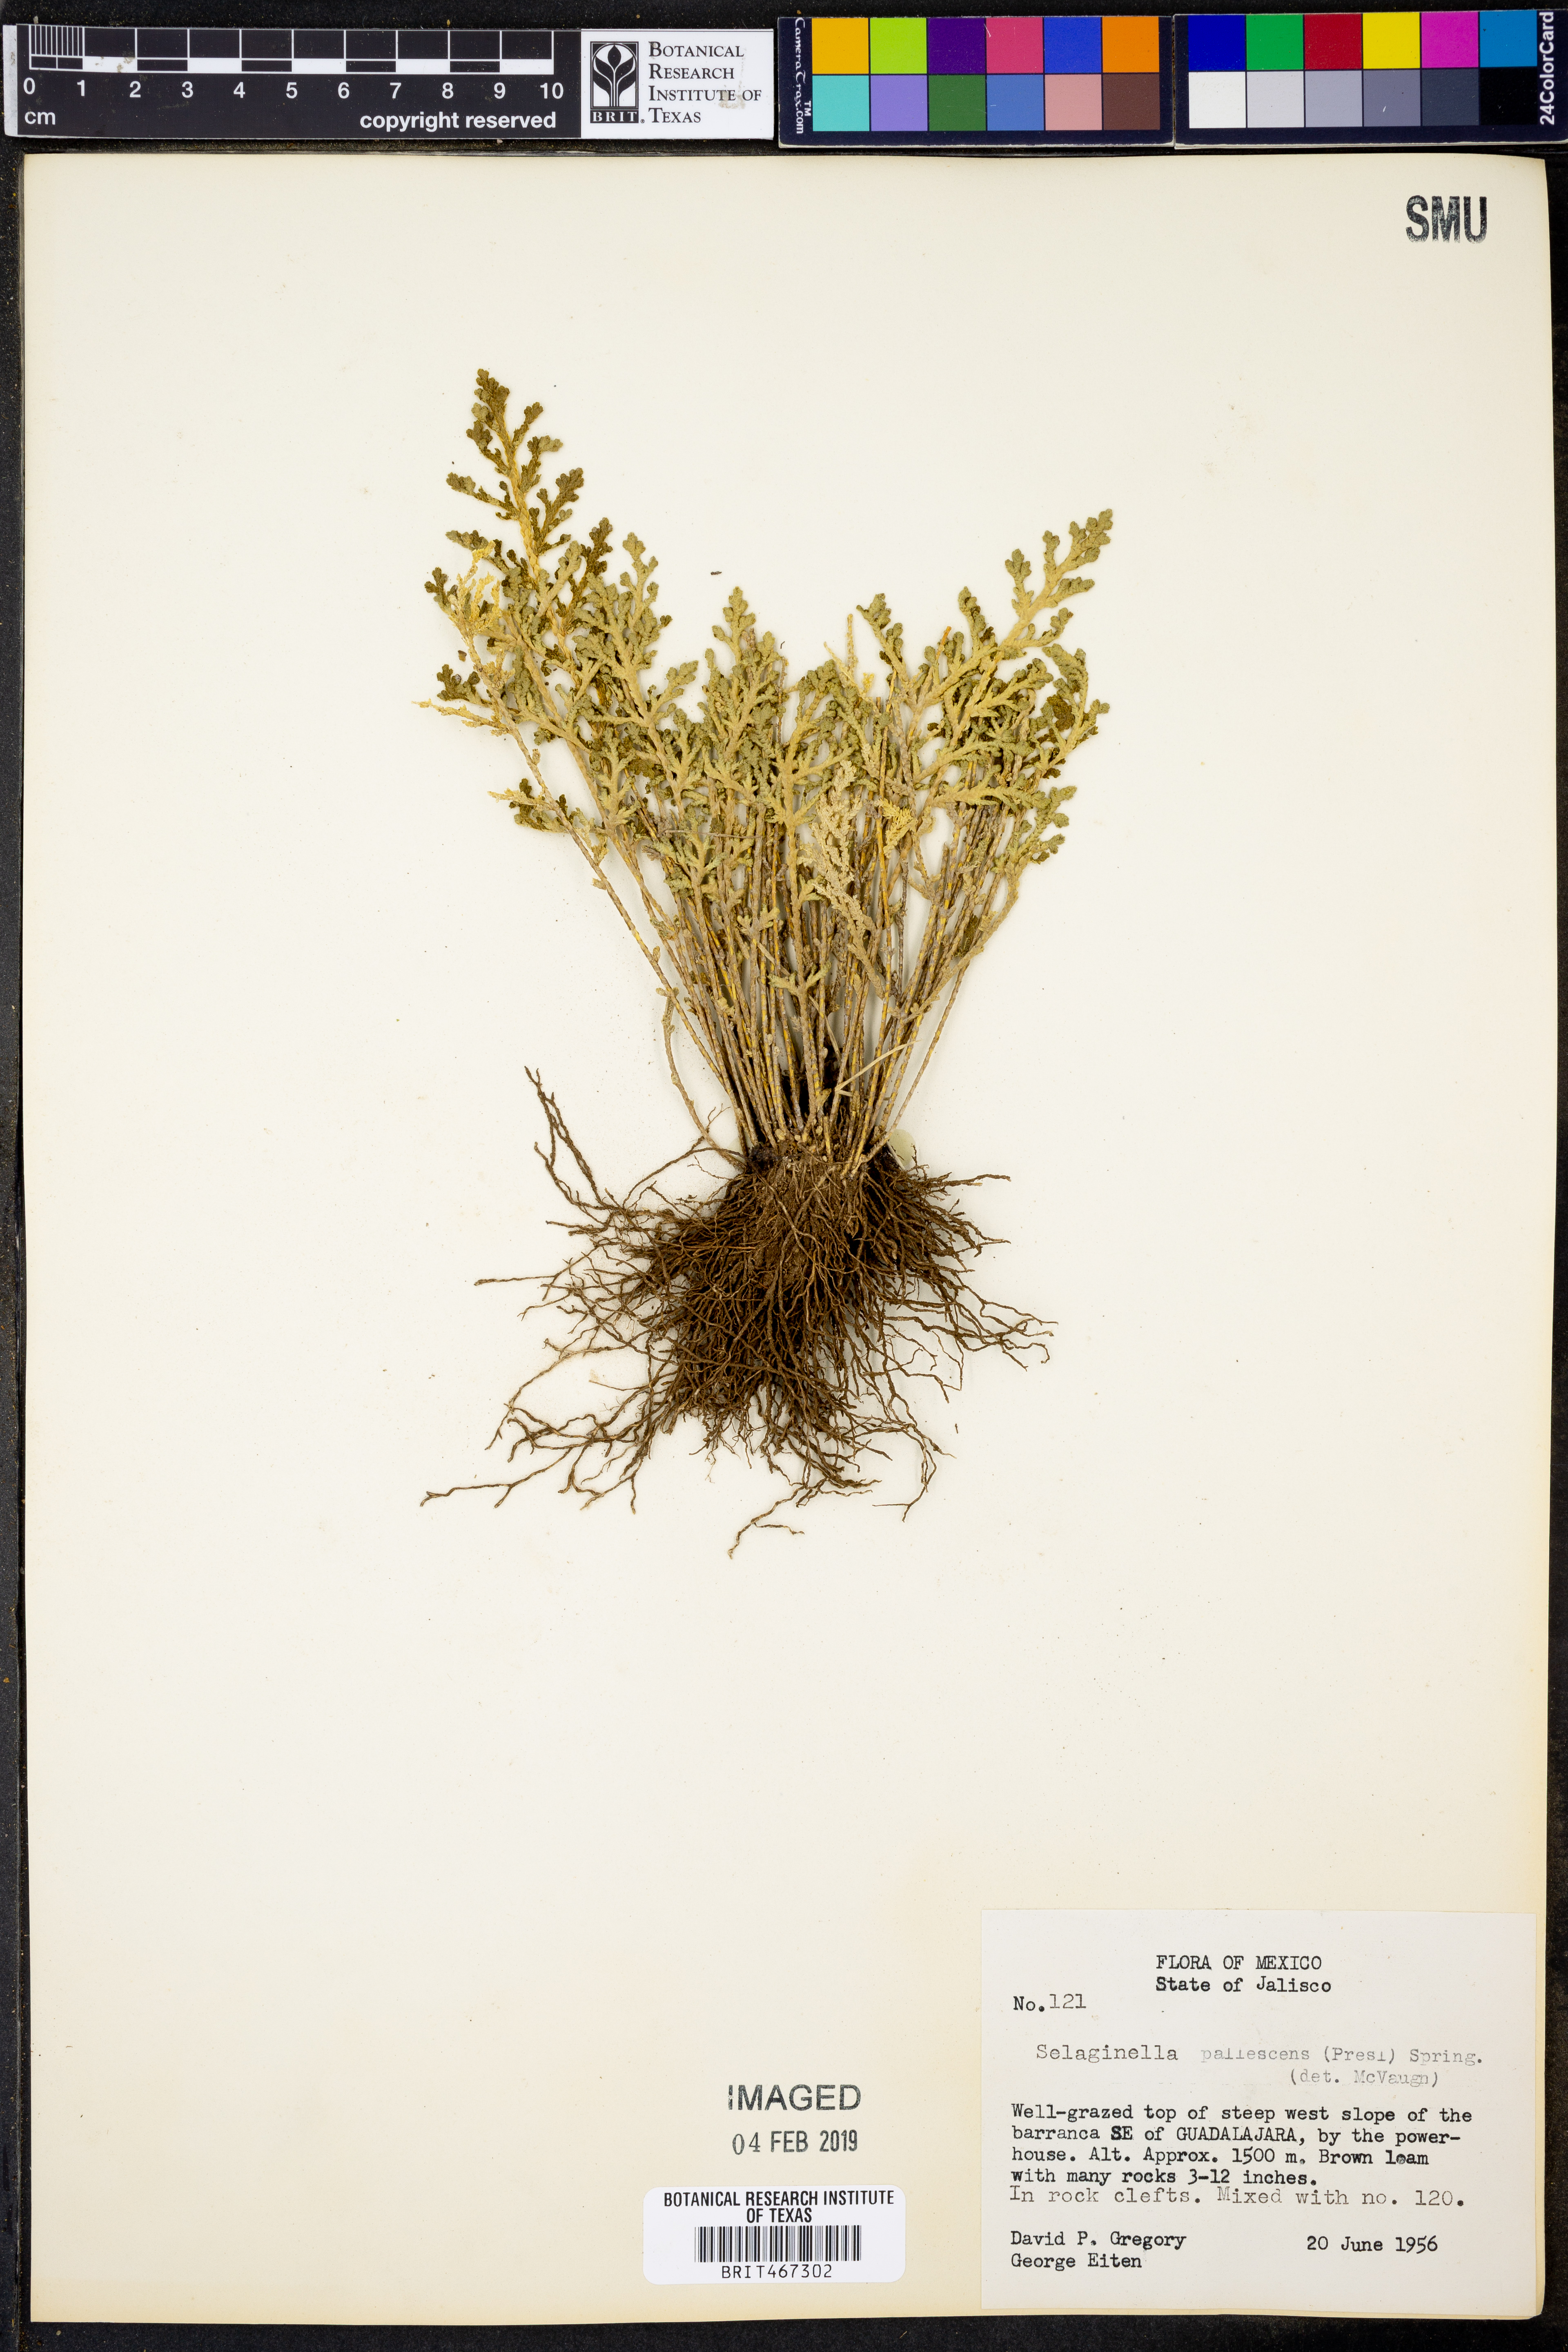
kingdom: Plantae
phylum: Tracheophyta
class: Lycopodiopsida
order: Selaginellales
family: Selaginellaceae
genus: Selaginella
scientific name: Selaginella pallescens
